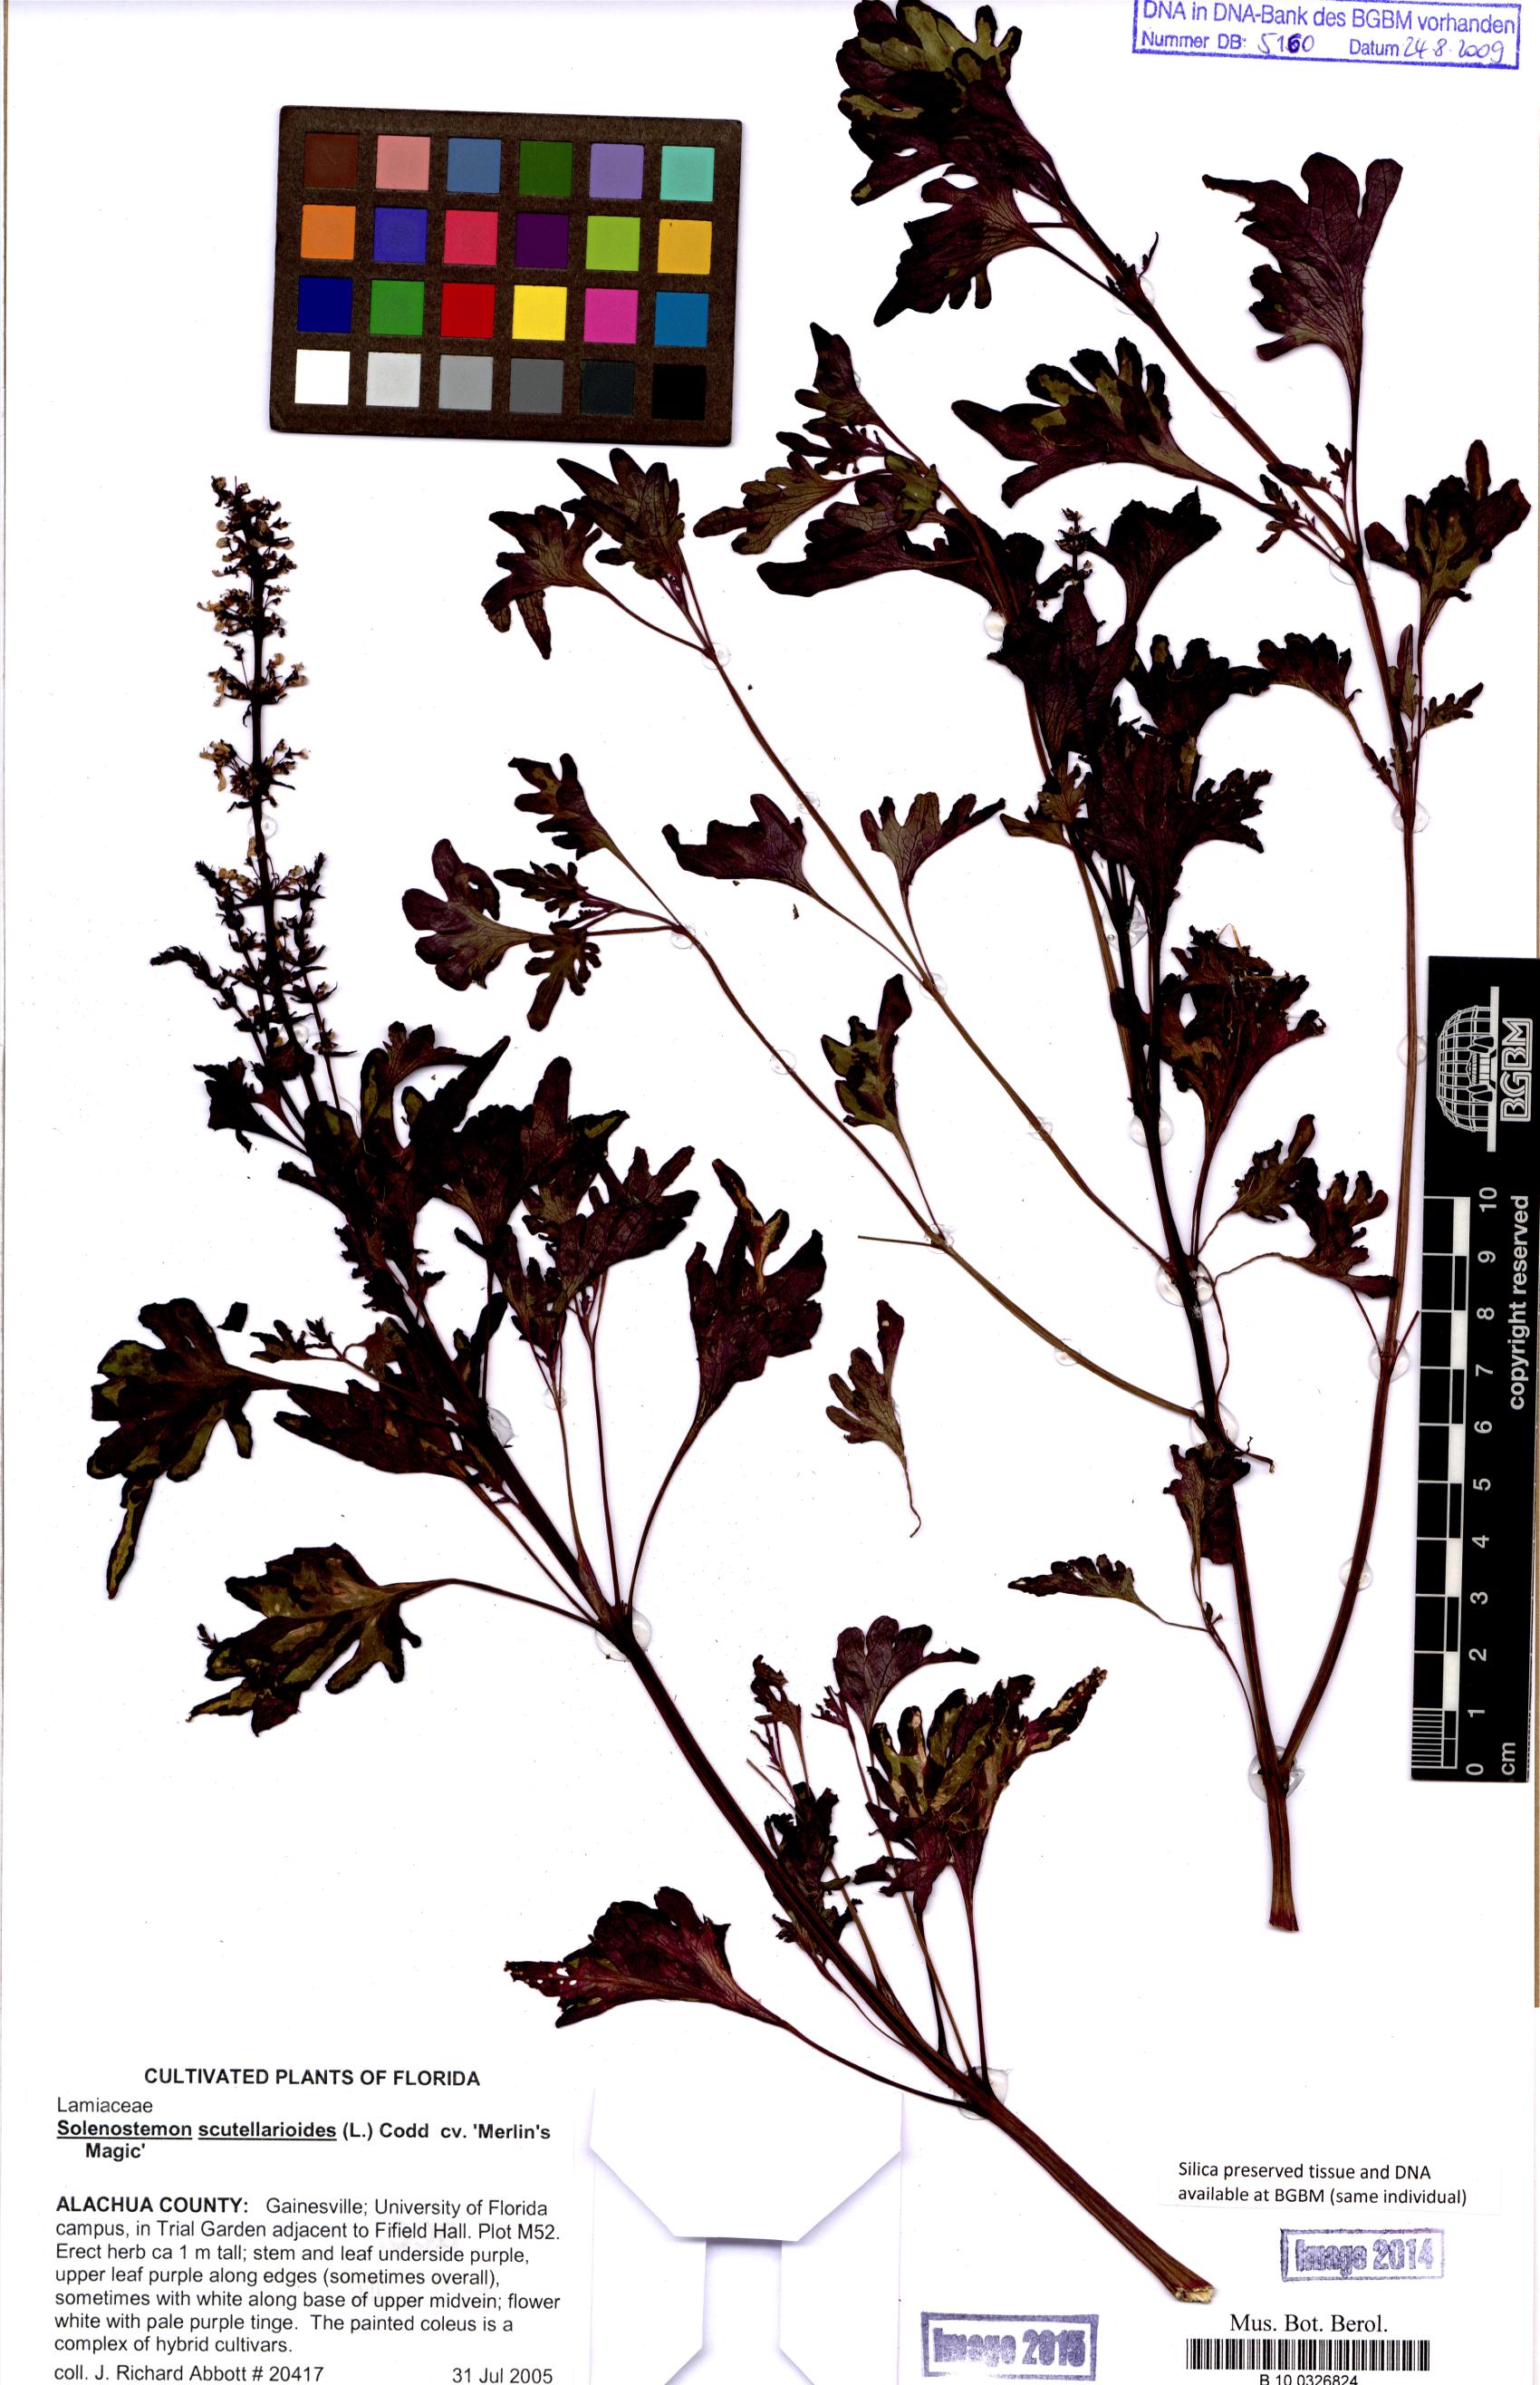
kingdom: Plantae
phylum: Tracheophyta
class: Magnoliopsida
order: Lamiales
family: Lamiaceae
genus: Coleus
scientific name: Coleus scutellarioides
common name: Coleus
